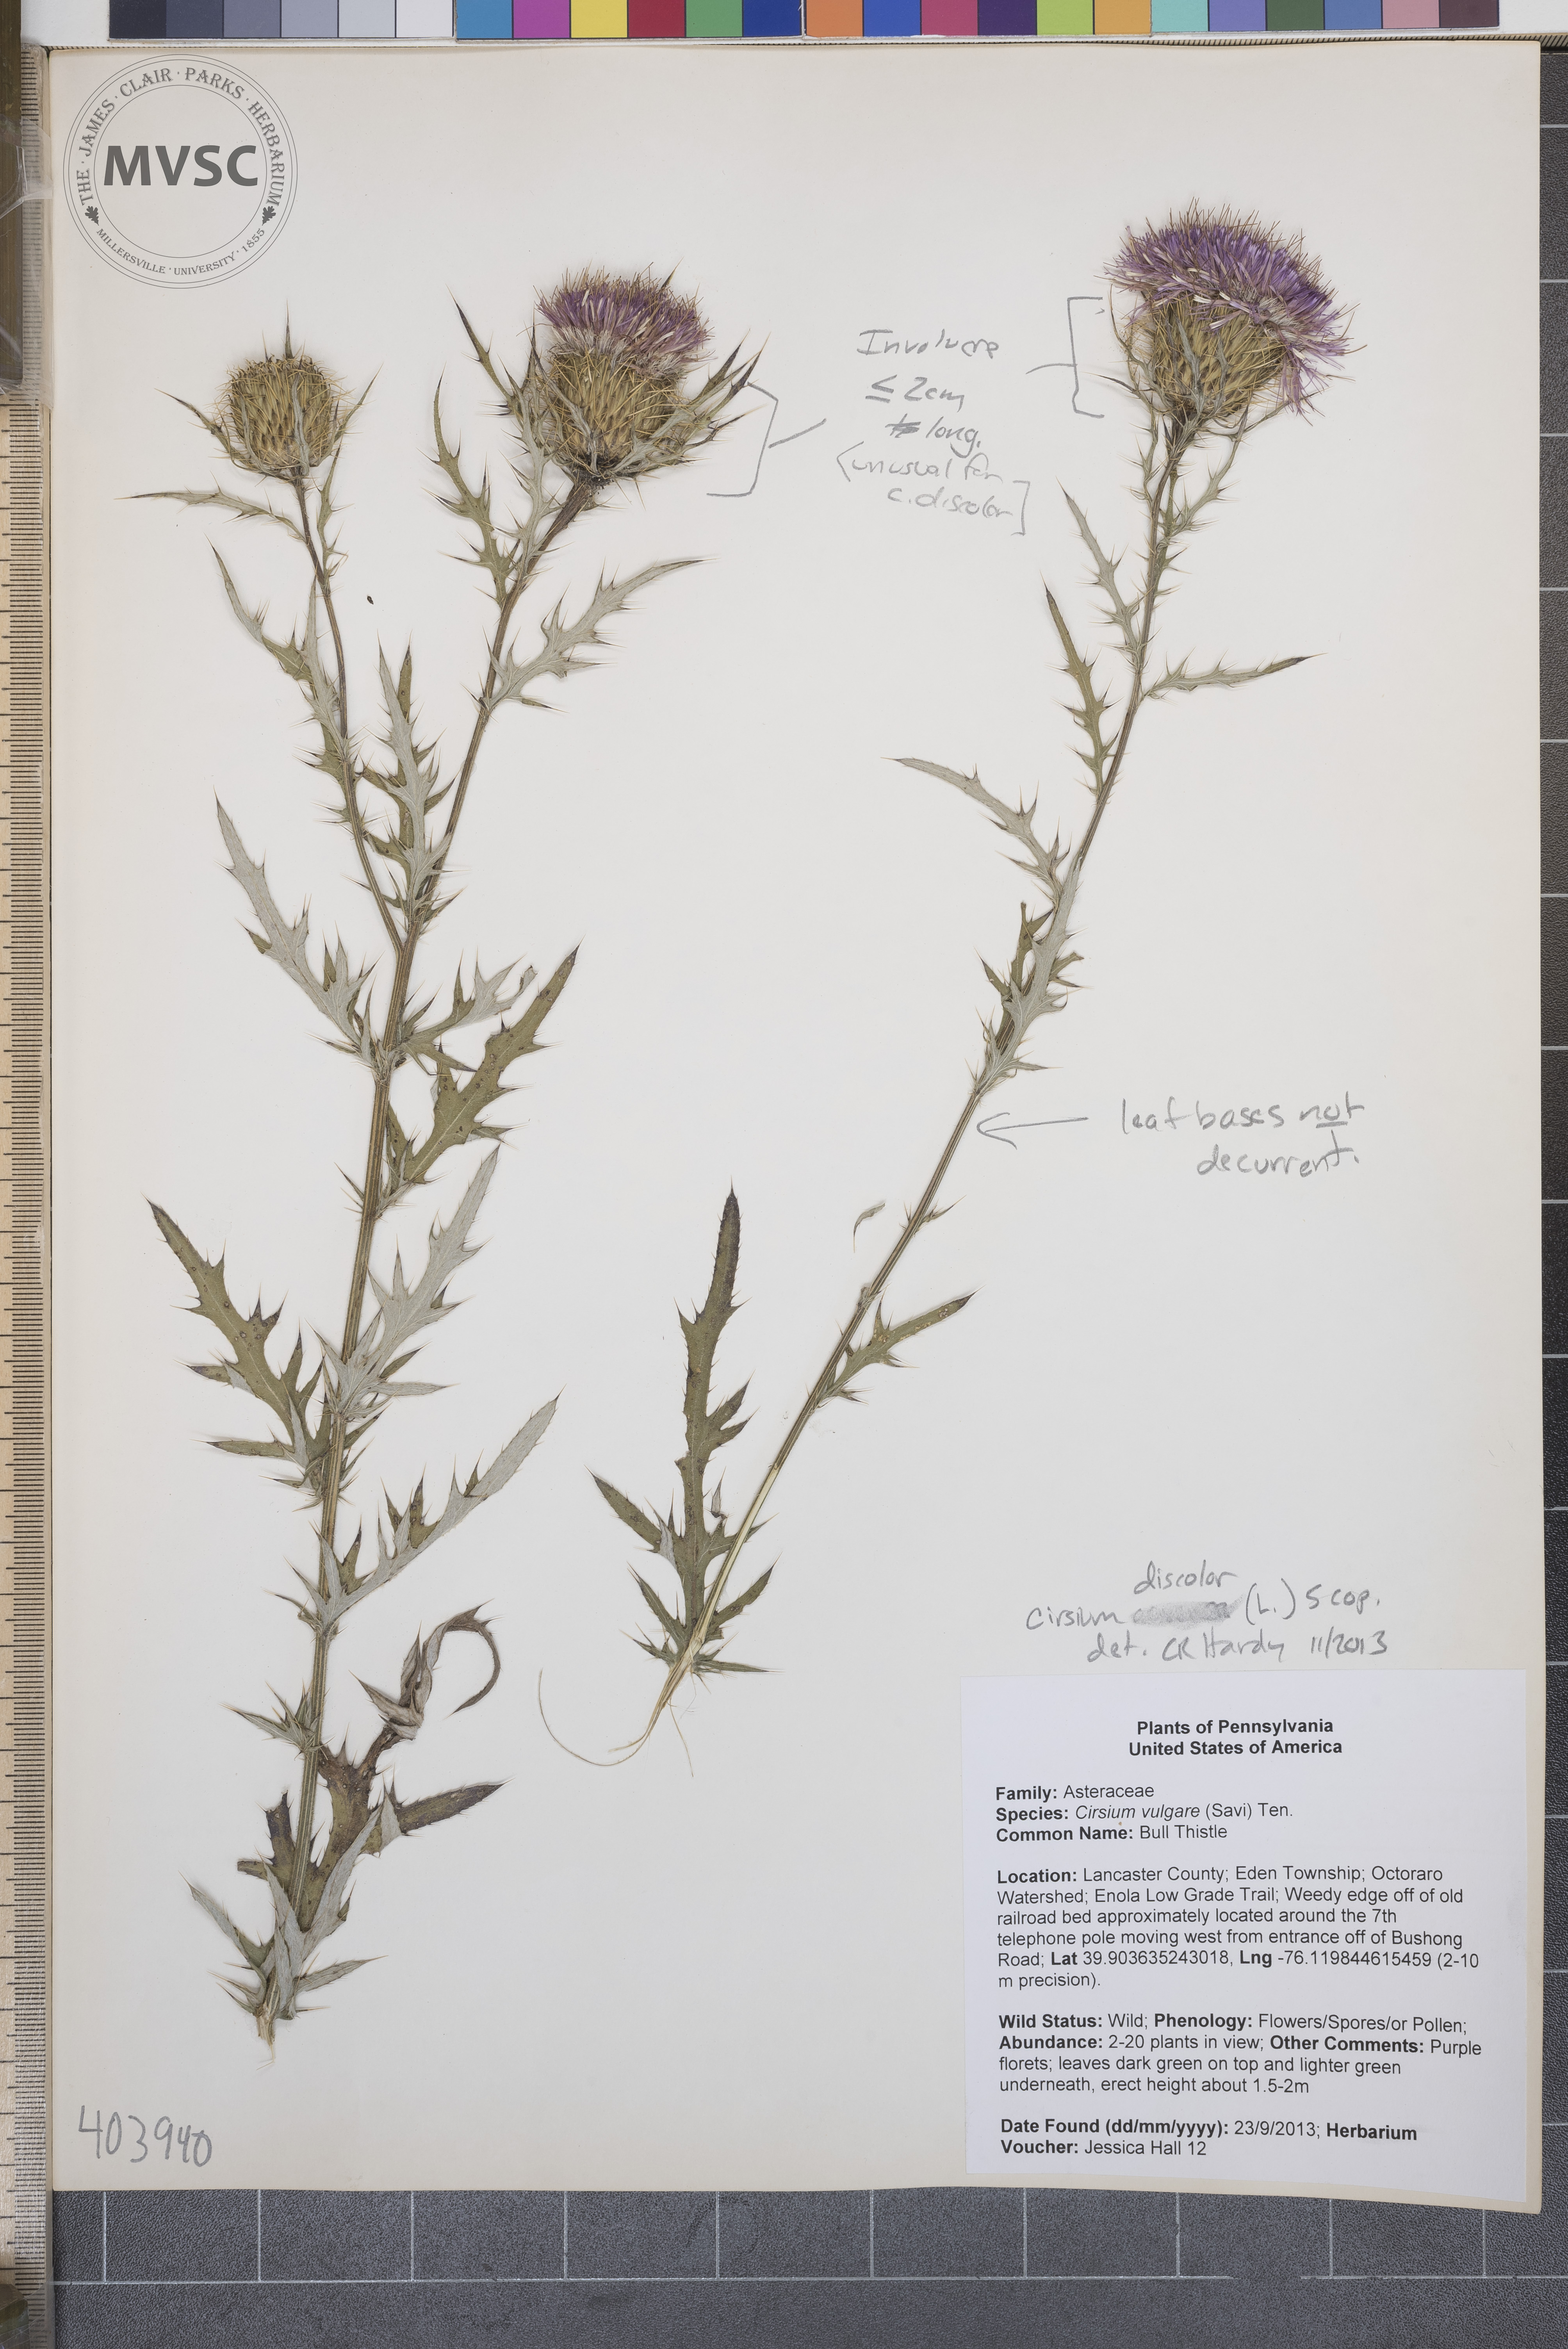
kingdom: Plantae
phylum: Tracheophyta
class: Magnoliopsida
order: Asterales
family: Asteraceae
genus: Cirsium
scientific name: Cirsium discolor
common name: Thistle
